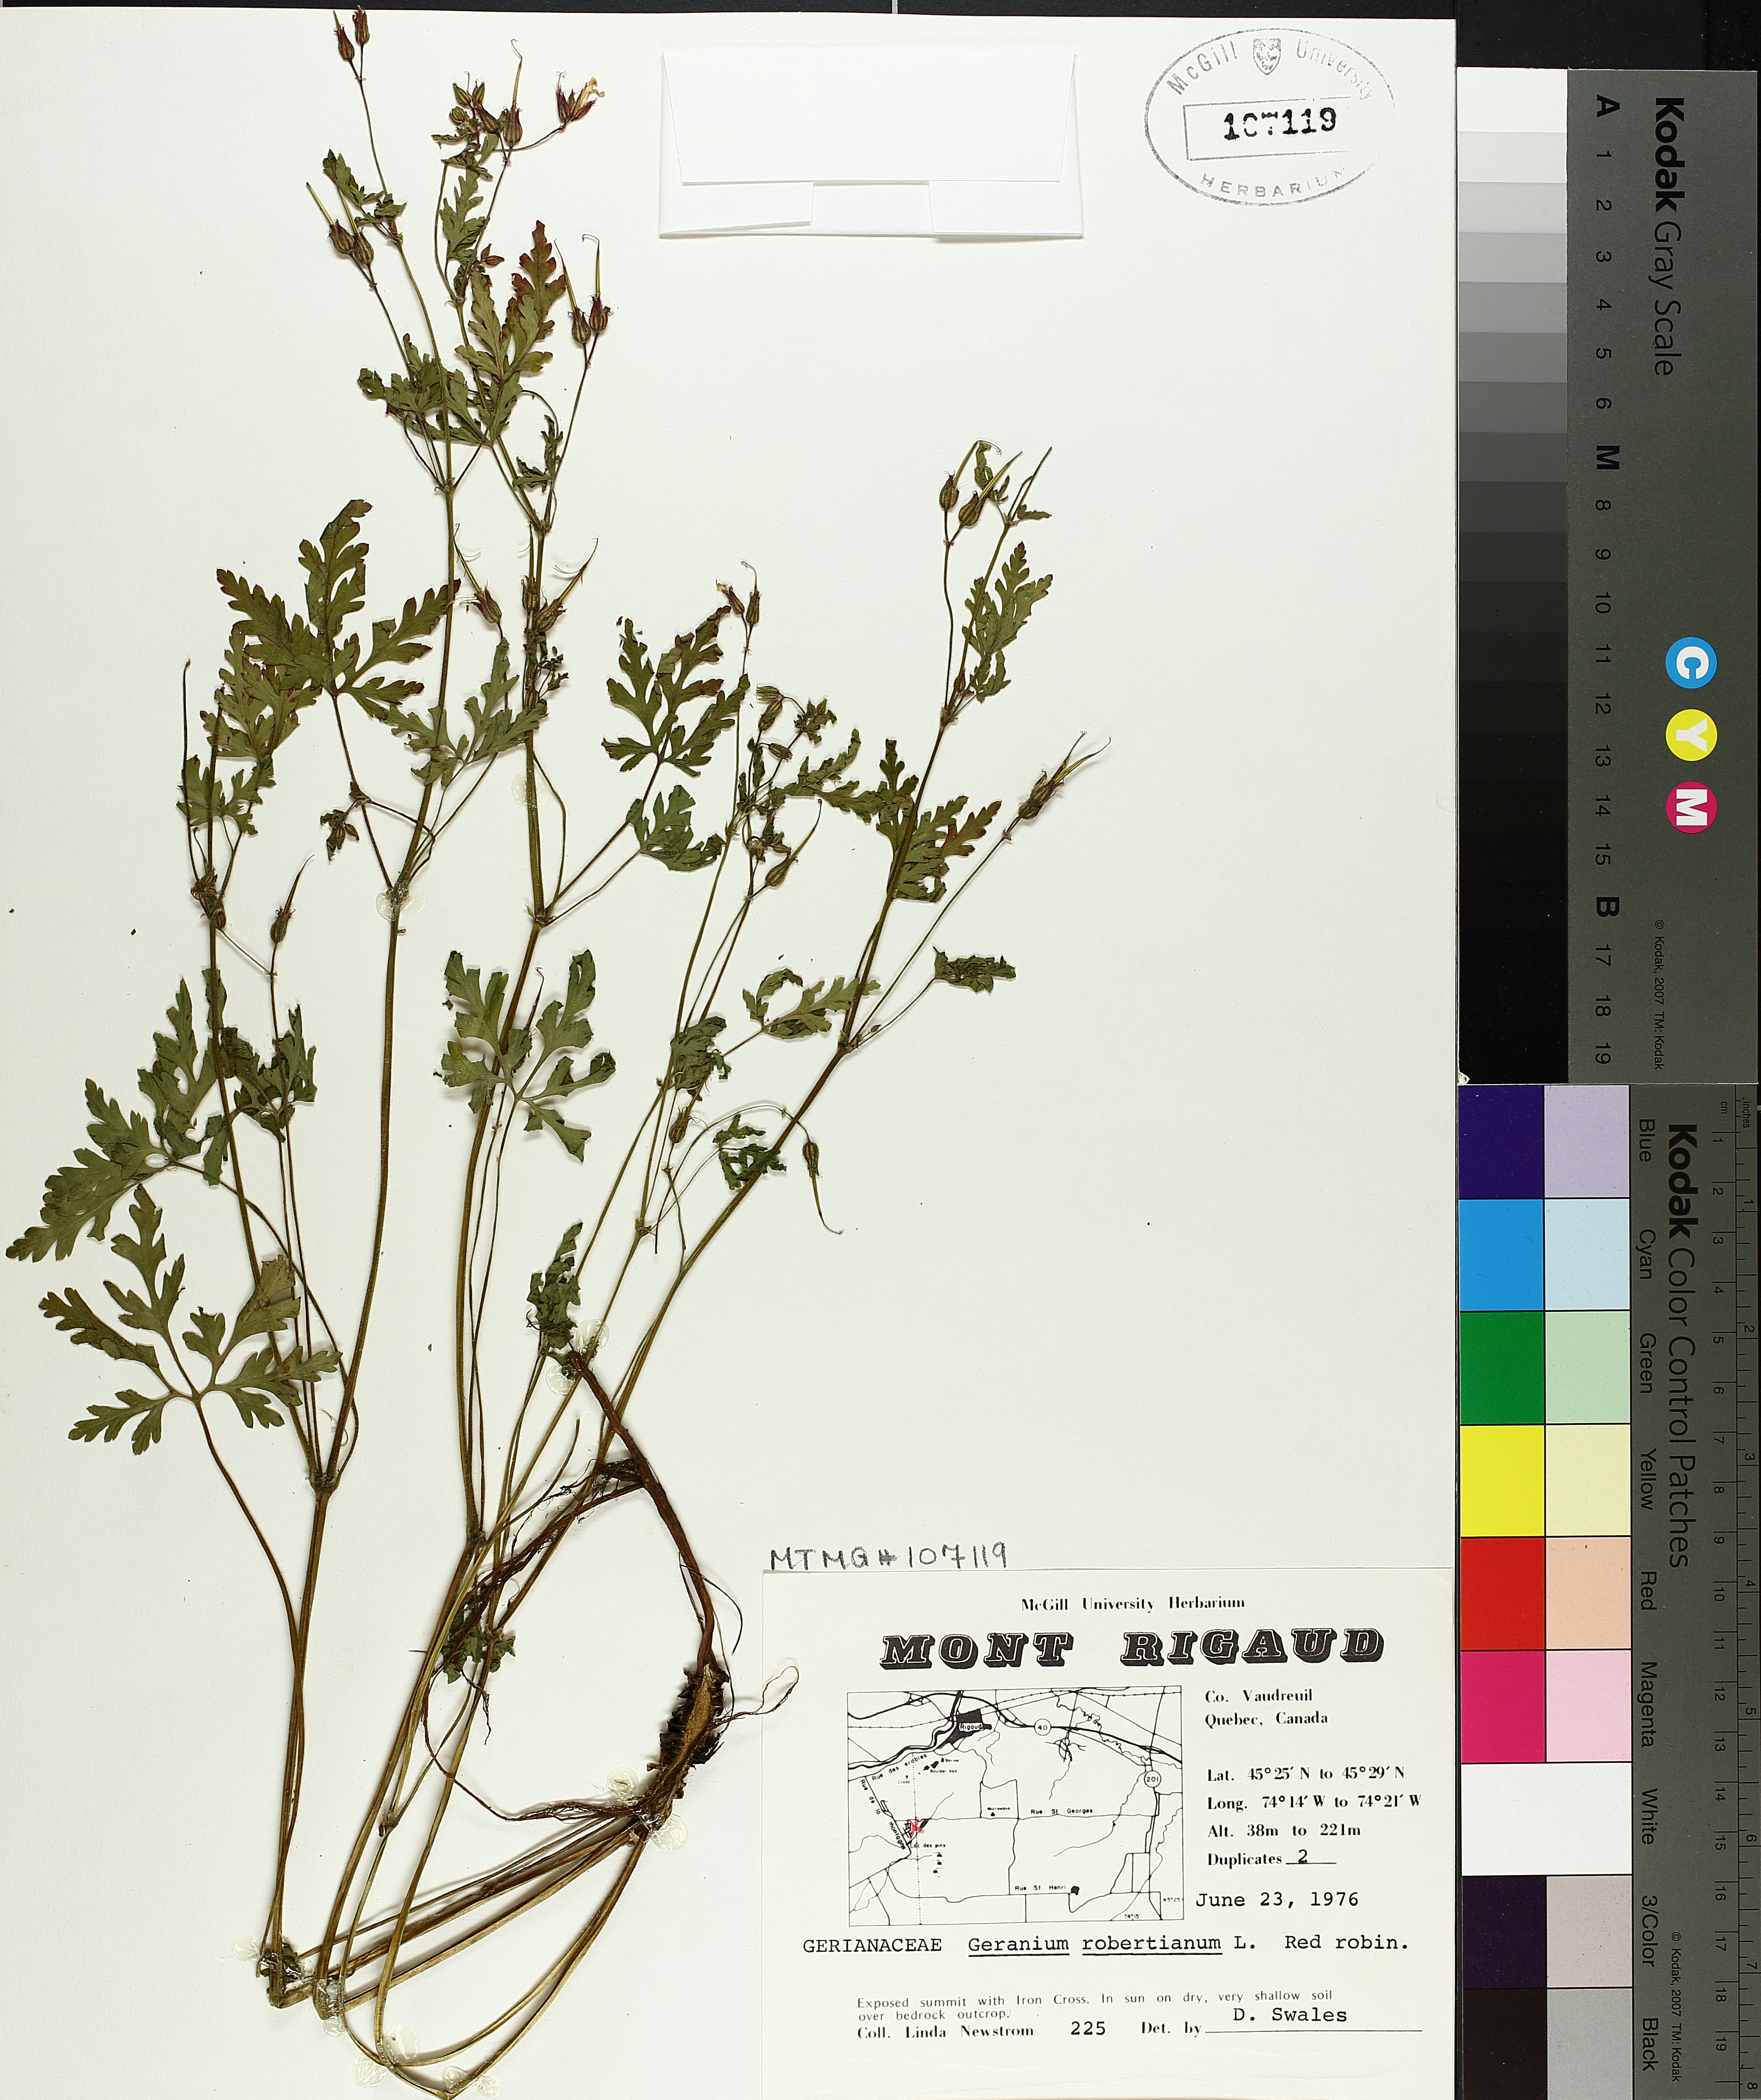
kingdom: Plantae
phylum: Tracheophyta
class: Magnoliopsida
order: Geraniales
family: Geraniaceae
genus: Geranium
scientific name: Geranium robertianum
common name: Herb-robert
